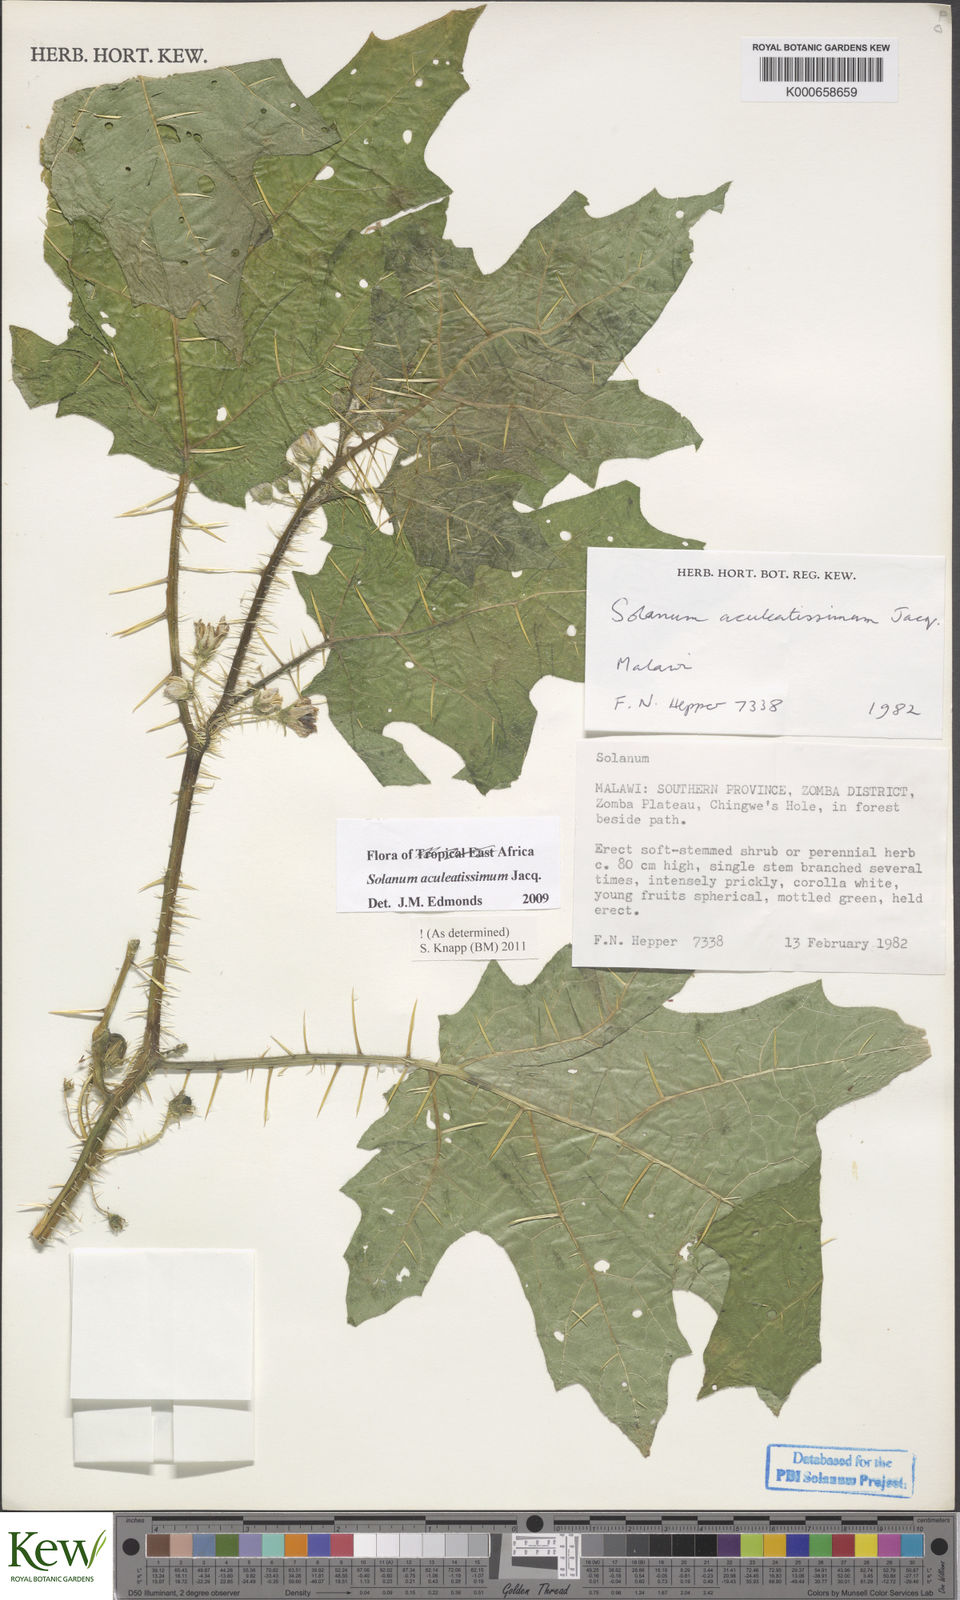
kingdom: Plantae
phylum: Tracheophyta
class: Magnoliopsida
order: Solanales
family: Solanaceae
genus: Solanum
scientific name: Solanum aculeatissimum
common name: Dutch eggplant
